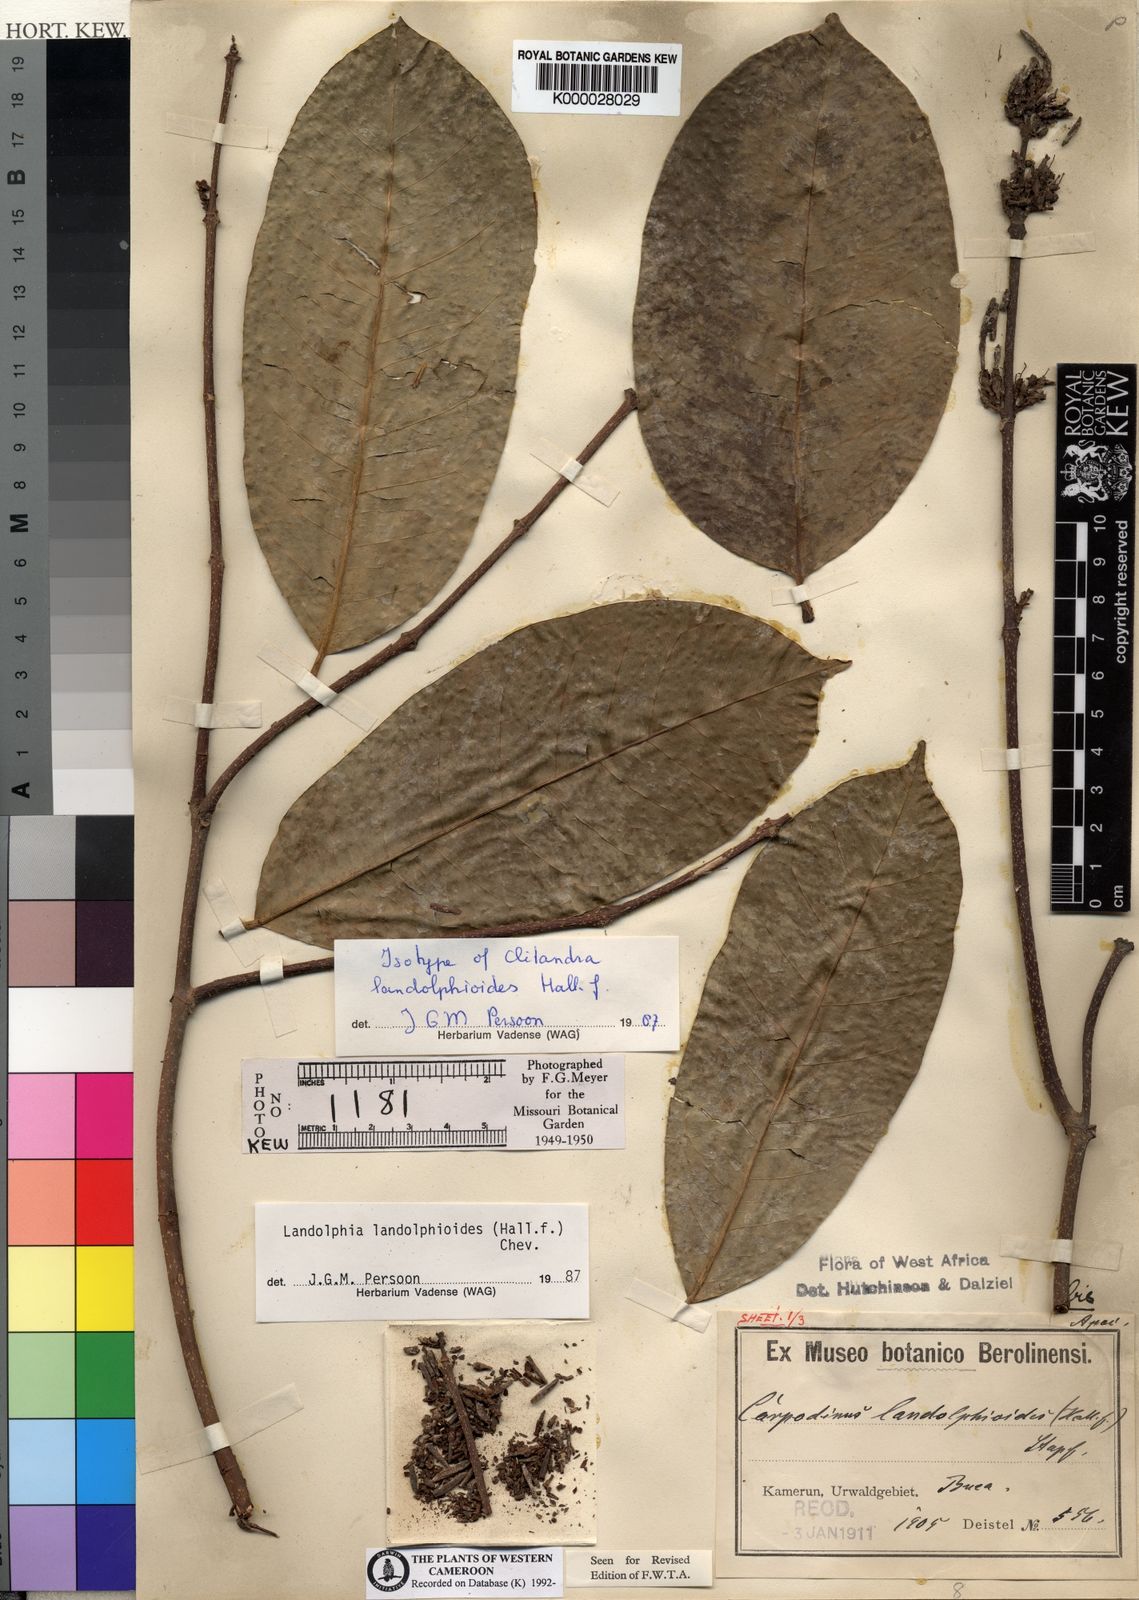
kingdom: Plantae
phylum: Tracheophyta
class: Magnoliopsida
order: Gentianales
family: Apocynaceae
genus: Landolphia
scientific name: Landolphia landolphioides
